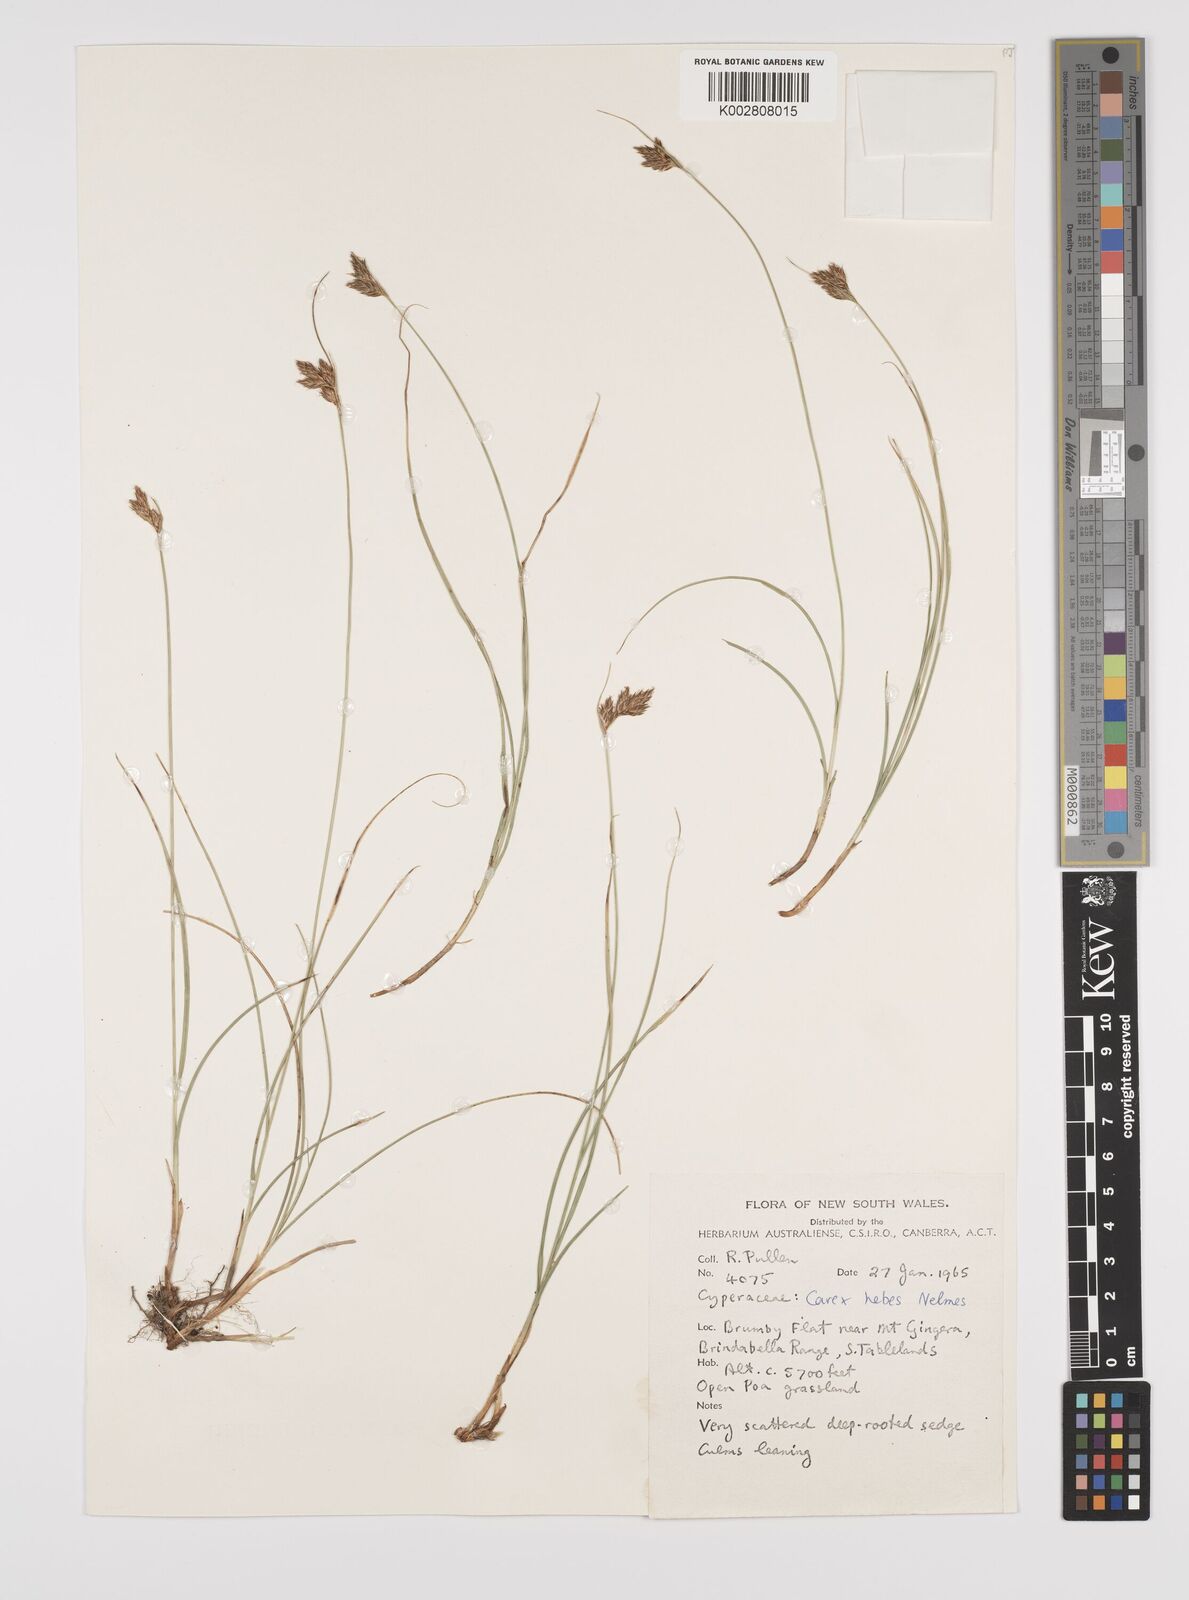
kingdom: Plantae
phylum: Tracheophyta
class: Liliopsida
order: Poales
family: Cyperaceae
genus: Carex
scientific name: Carex hebes
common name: Dry land sedge
